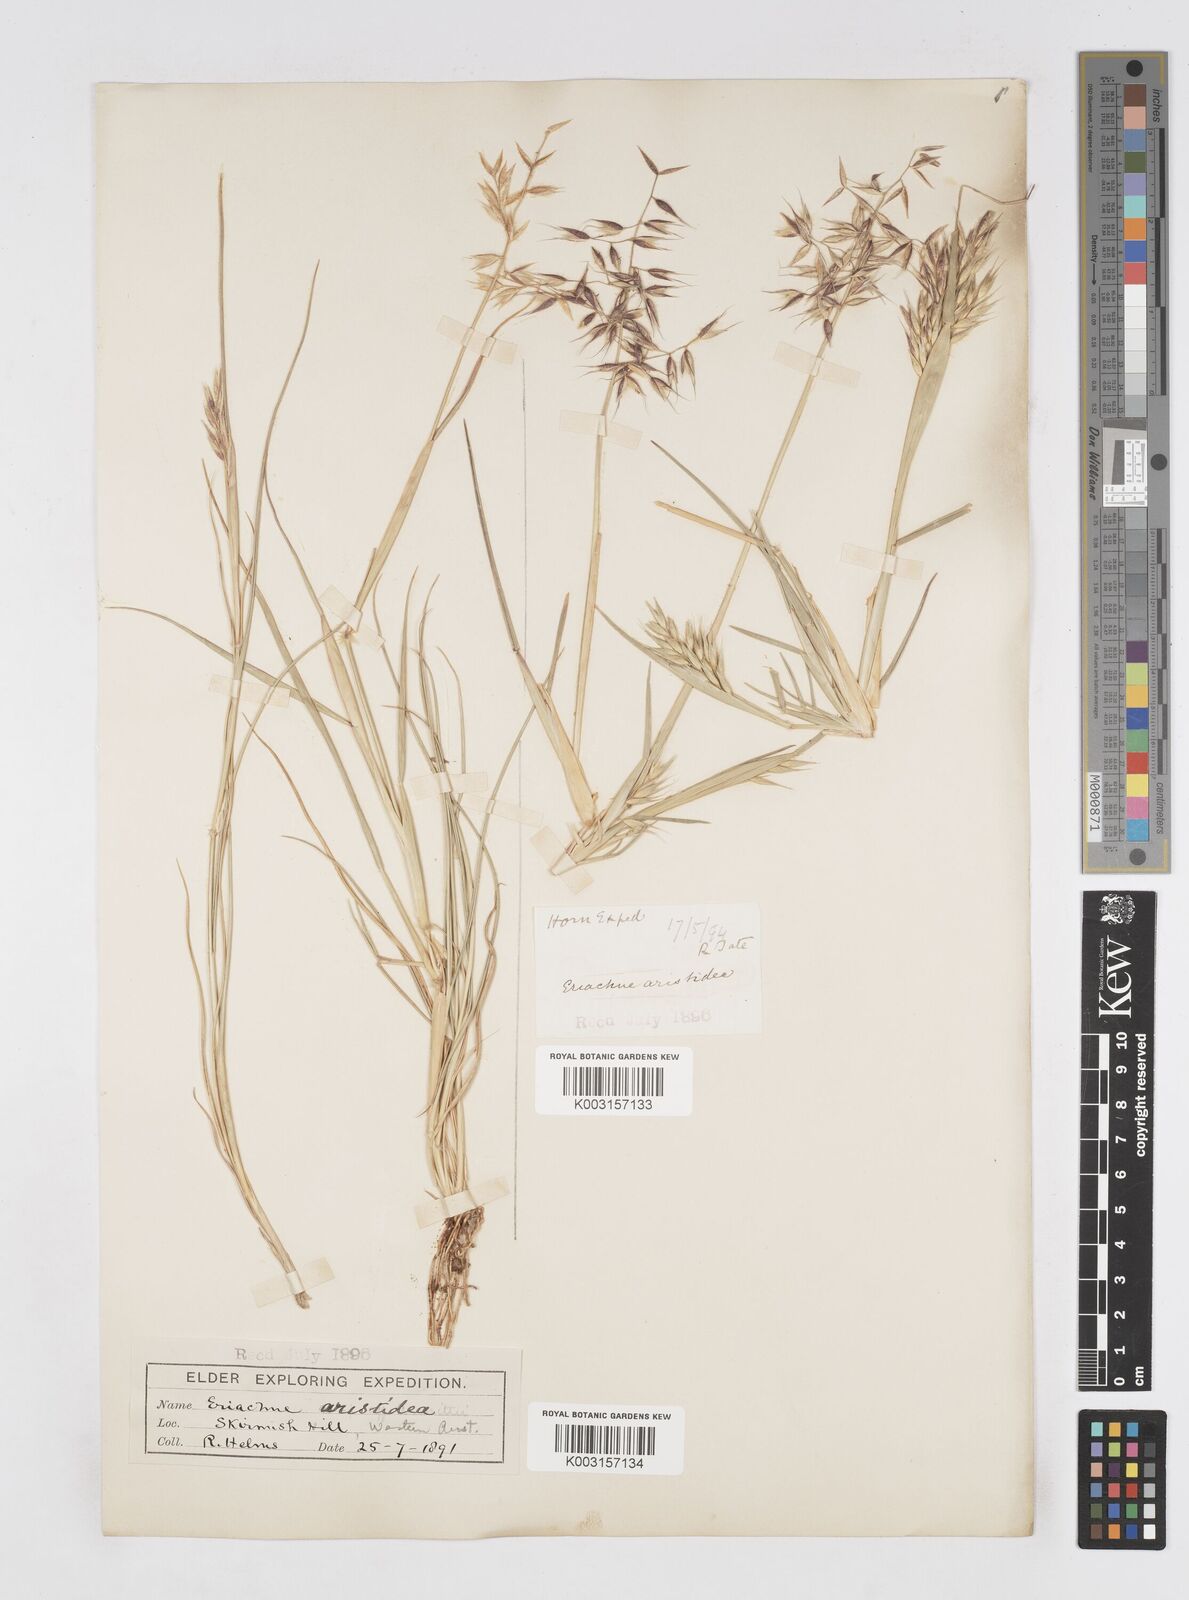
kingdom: Plantae
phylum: Tracheophyta
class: Liliopsida
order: Poales
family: Poaceae
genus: Eriachne
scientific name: Eriachne aristidea
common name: Three-awn wanderrie grass
